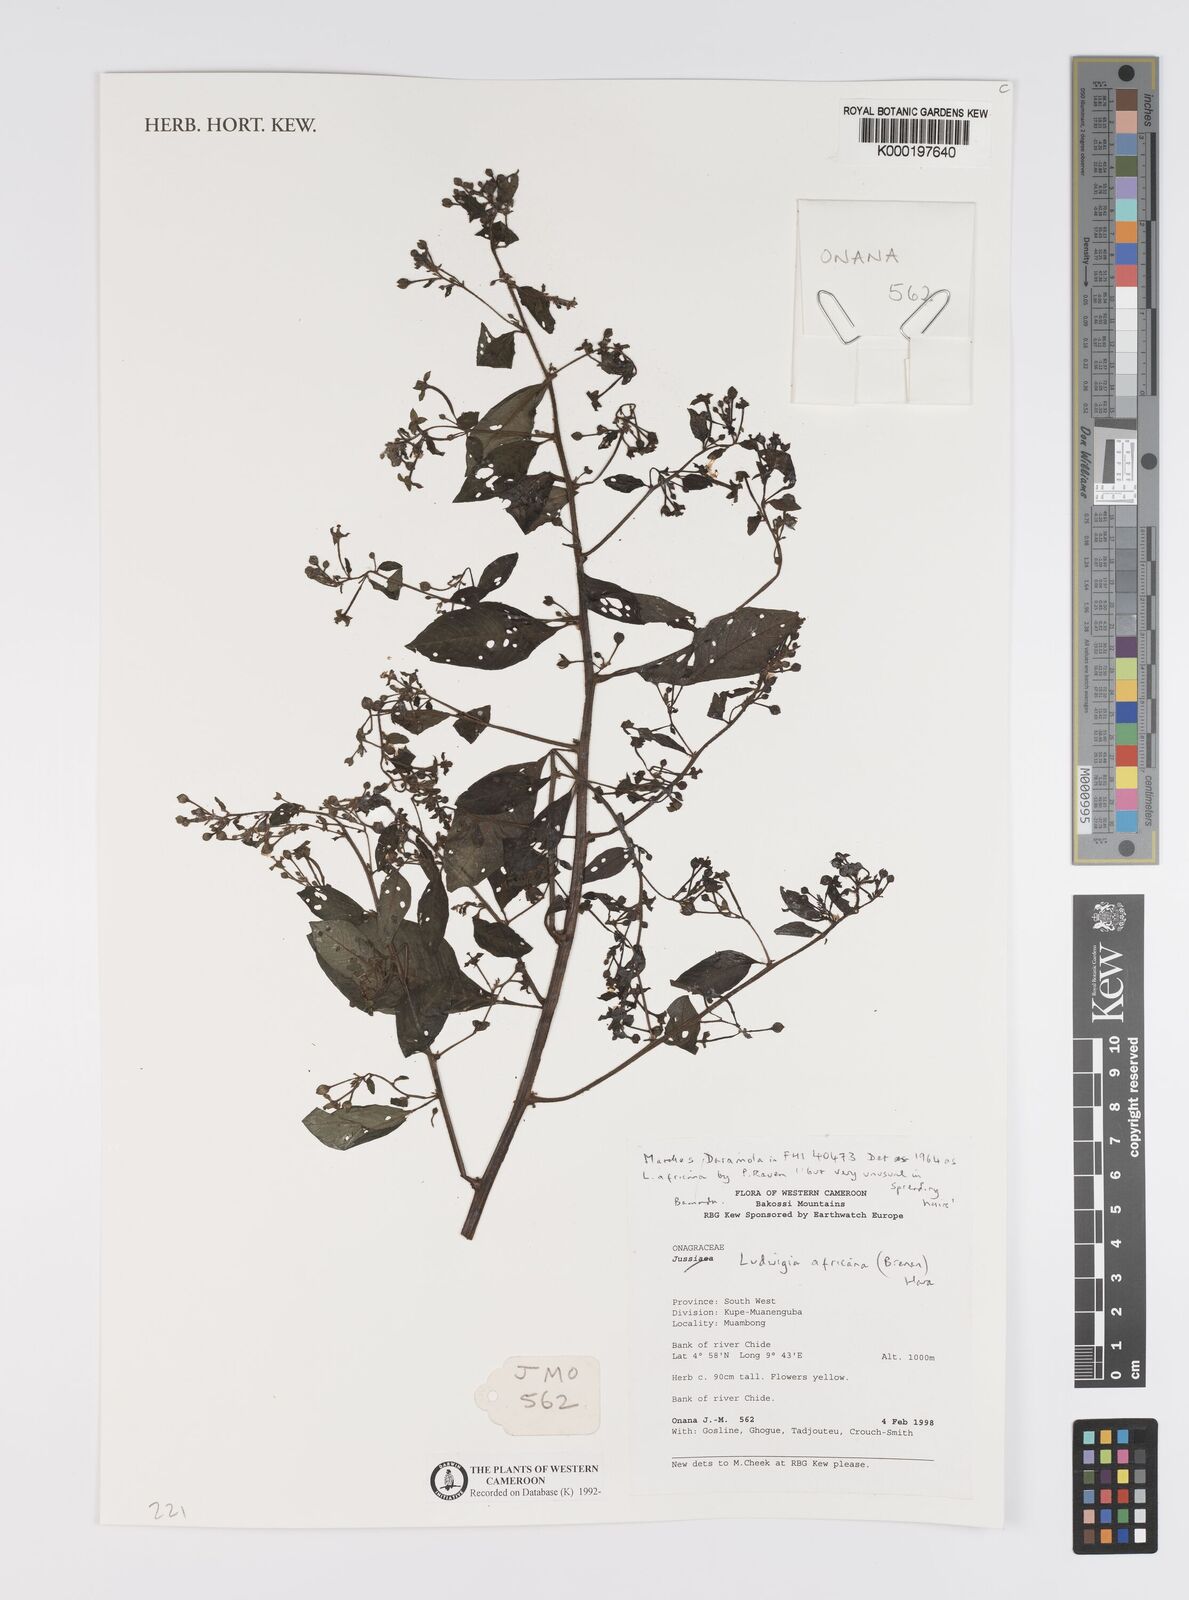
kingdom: Plantae
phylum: Tracheophyta
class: Magnoliopsida
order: Myrtales
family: Onagraceae
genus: Ludwigia
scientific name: Ludwigia africana
